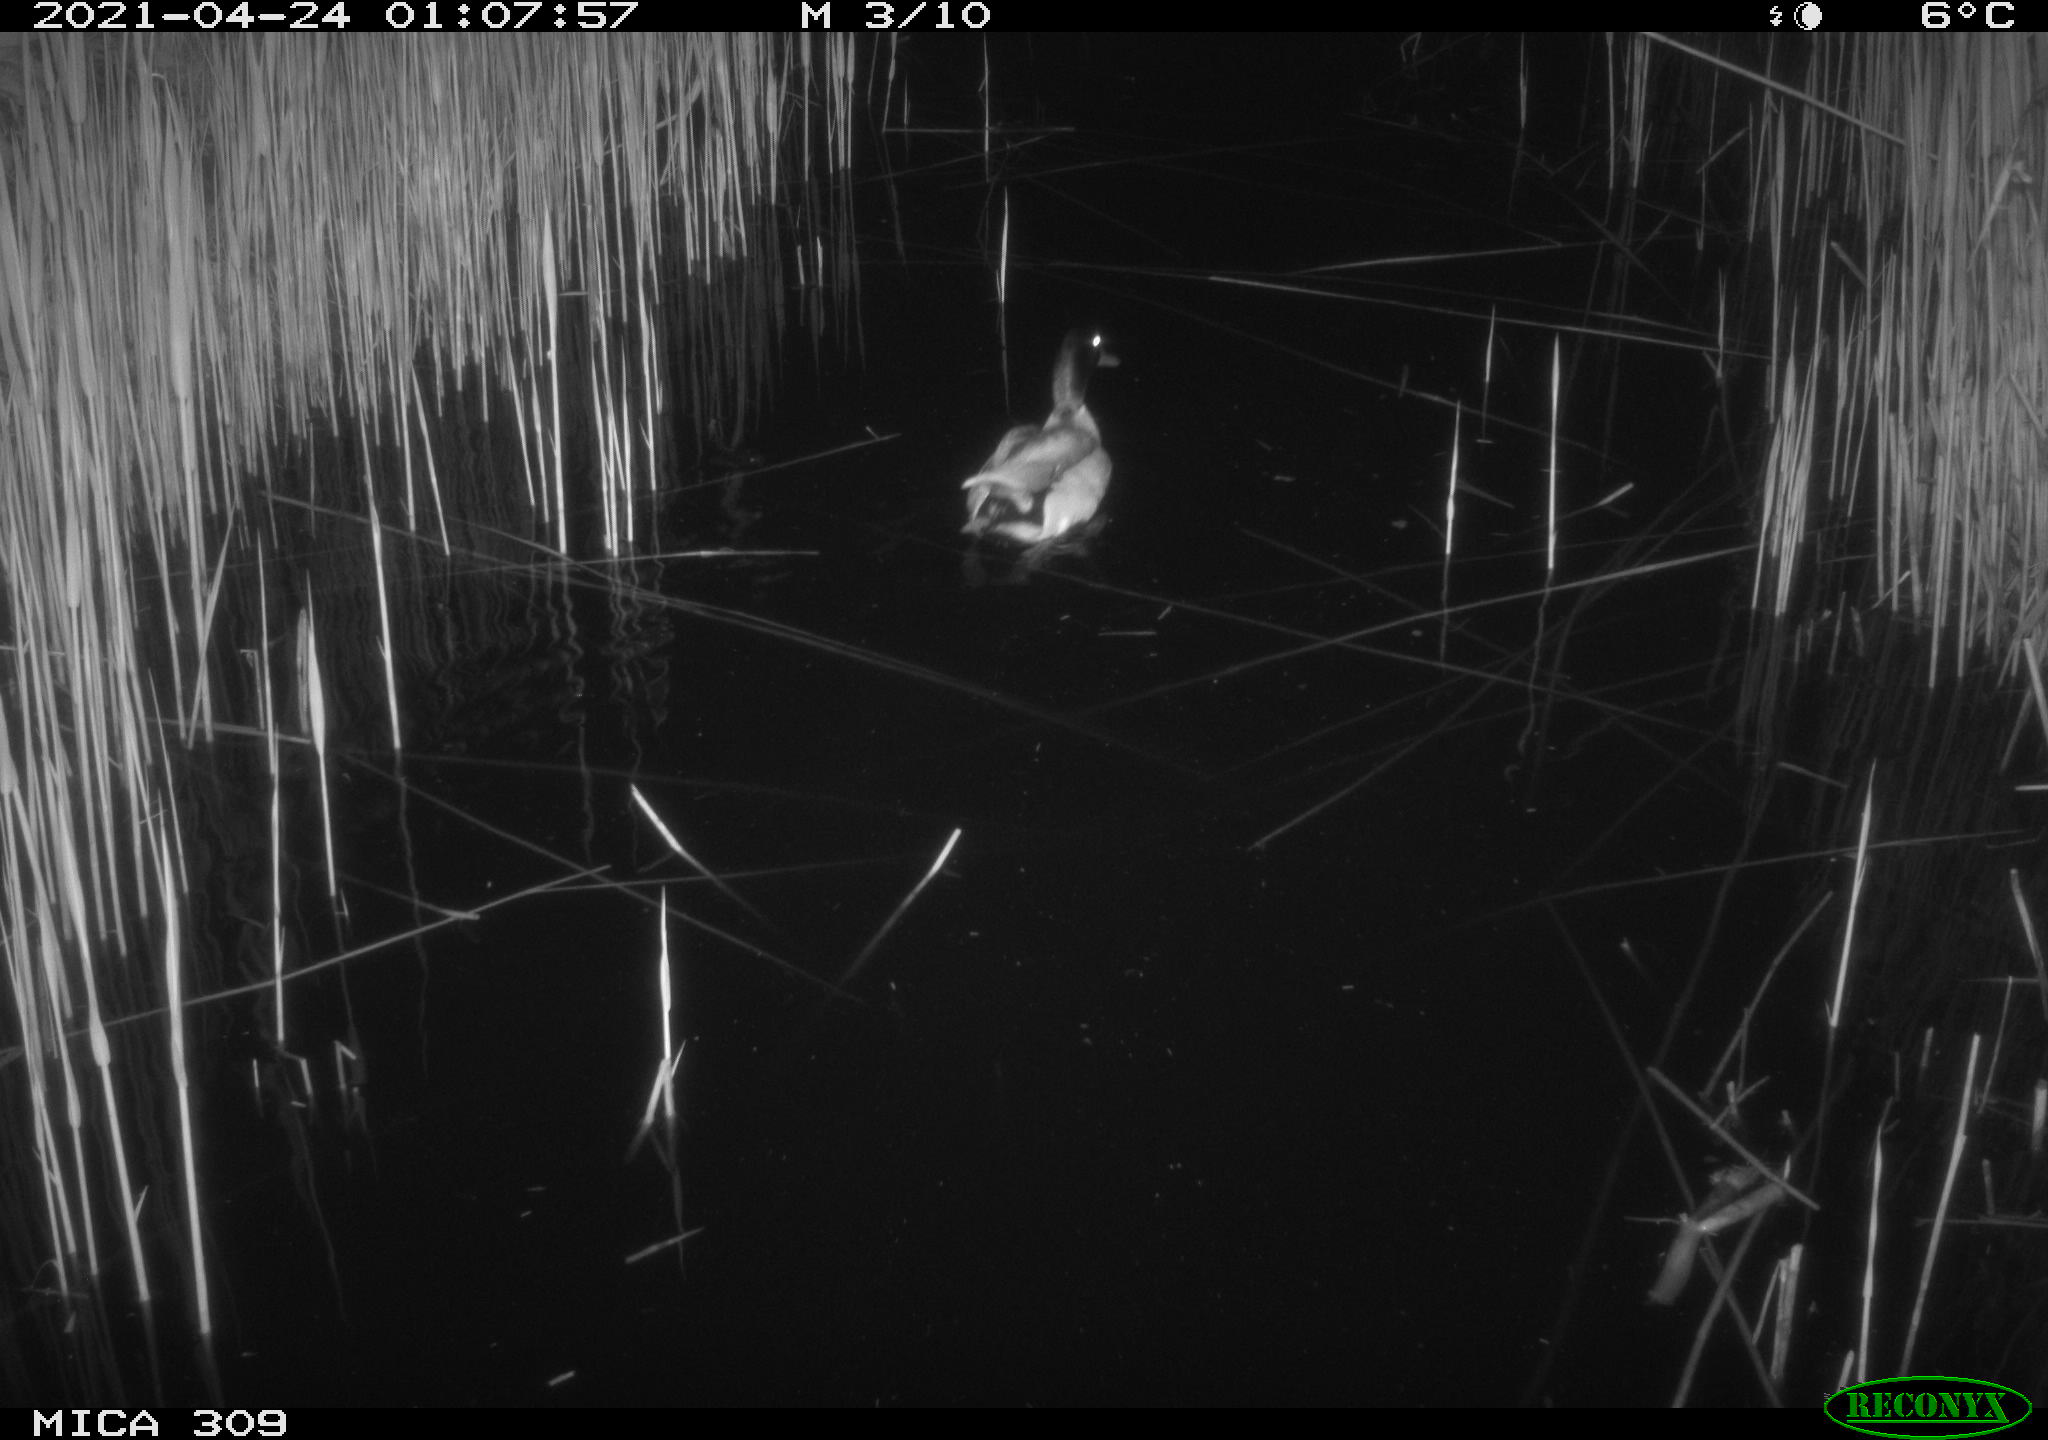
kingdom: Animalia
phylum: Chordata
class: Aves
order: Anseriformes
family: Anatidae
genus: Anas
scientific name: Anas platyrhynchos
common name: Mallard
